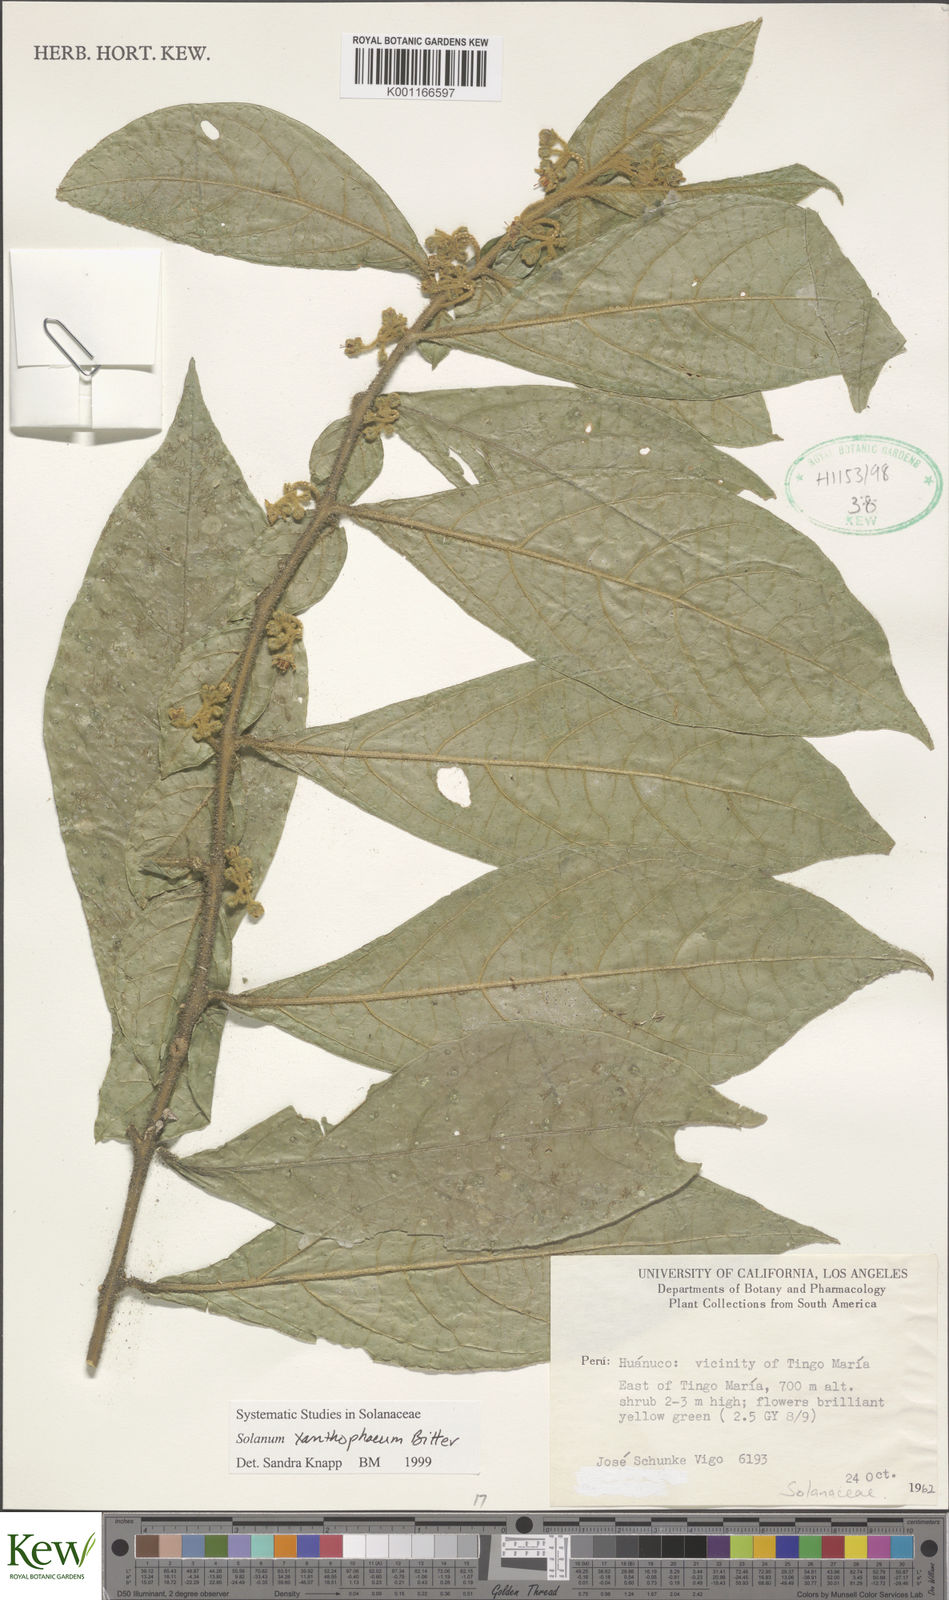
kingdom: Plantae
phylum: Tracheophyta
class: Magnoliopsida
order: Solanales
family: Solanaceae
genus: Solanum
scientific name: Solanum xanthophaeum
